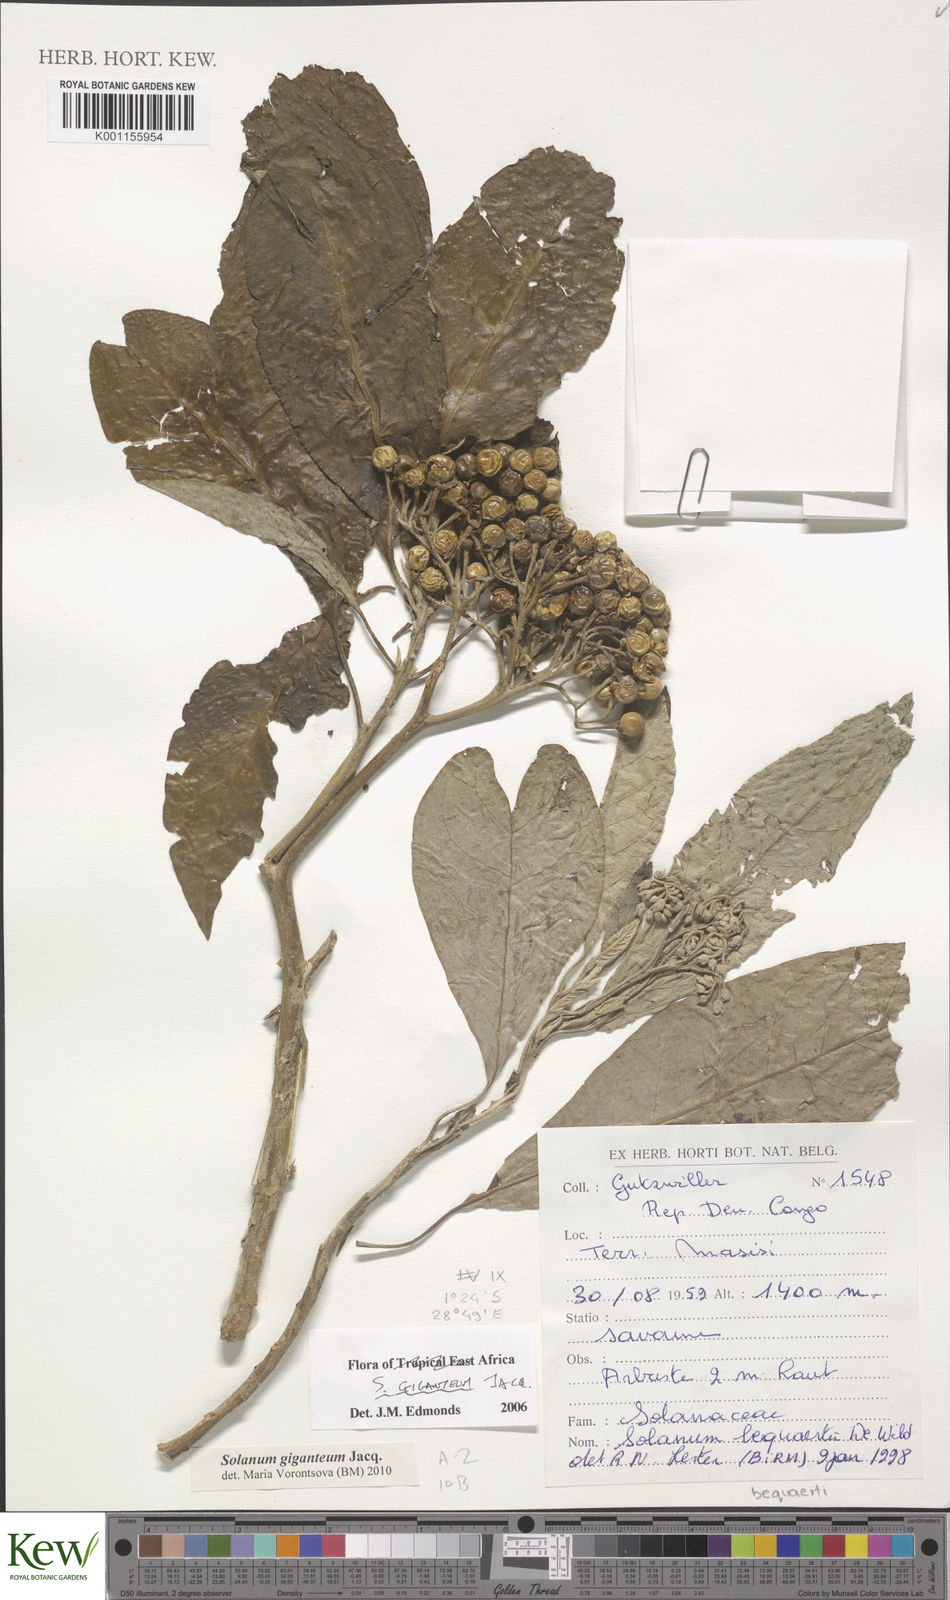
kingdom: Plantae
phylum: Tracheophyta
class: Magnoliopsida
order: Solanales
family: Solanaceae
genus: Solanum
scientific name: Solanum giganteum
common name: Healing-leaf-tree
